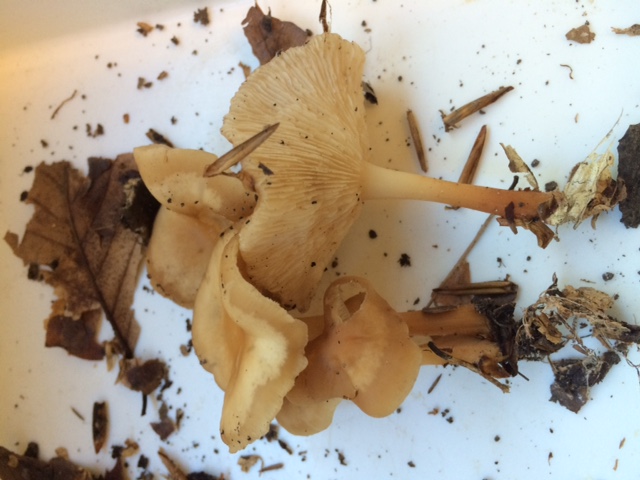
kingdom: Fungi
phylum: Basidiomycota
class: Agaricomycetes
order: Agaricales
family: Omphalotaceae
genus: Gymnopus
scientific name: Gymnopus dryophilus
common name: løv-fladhat
